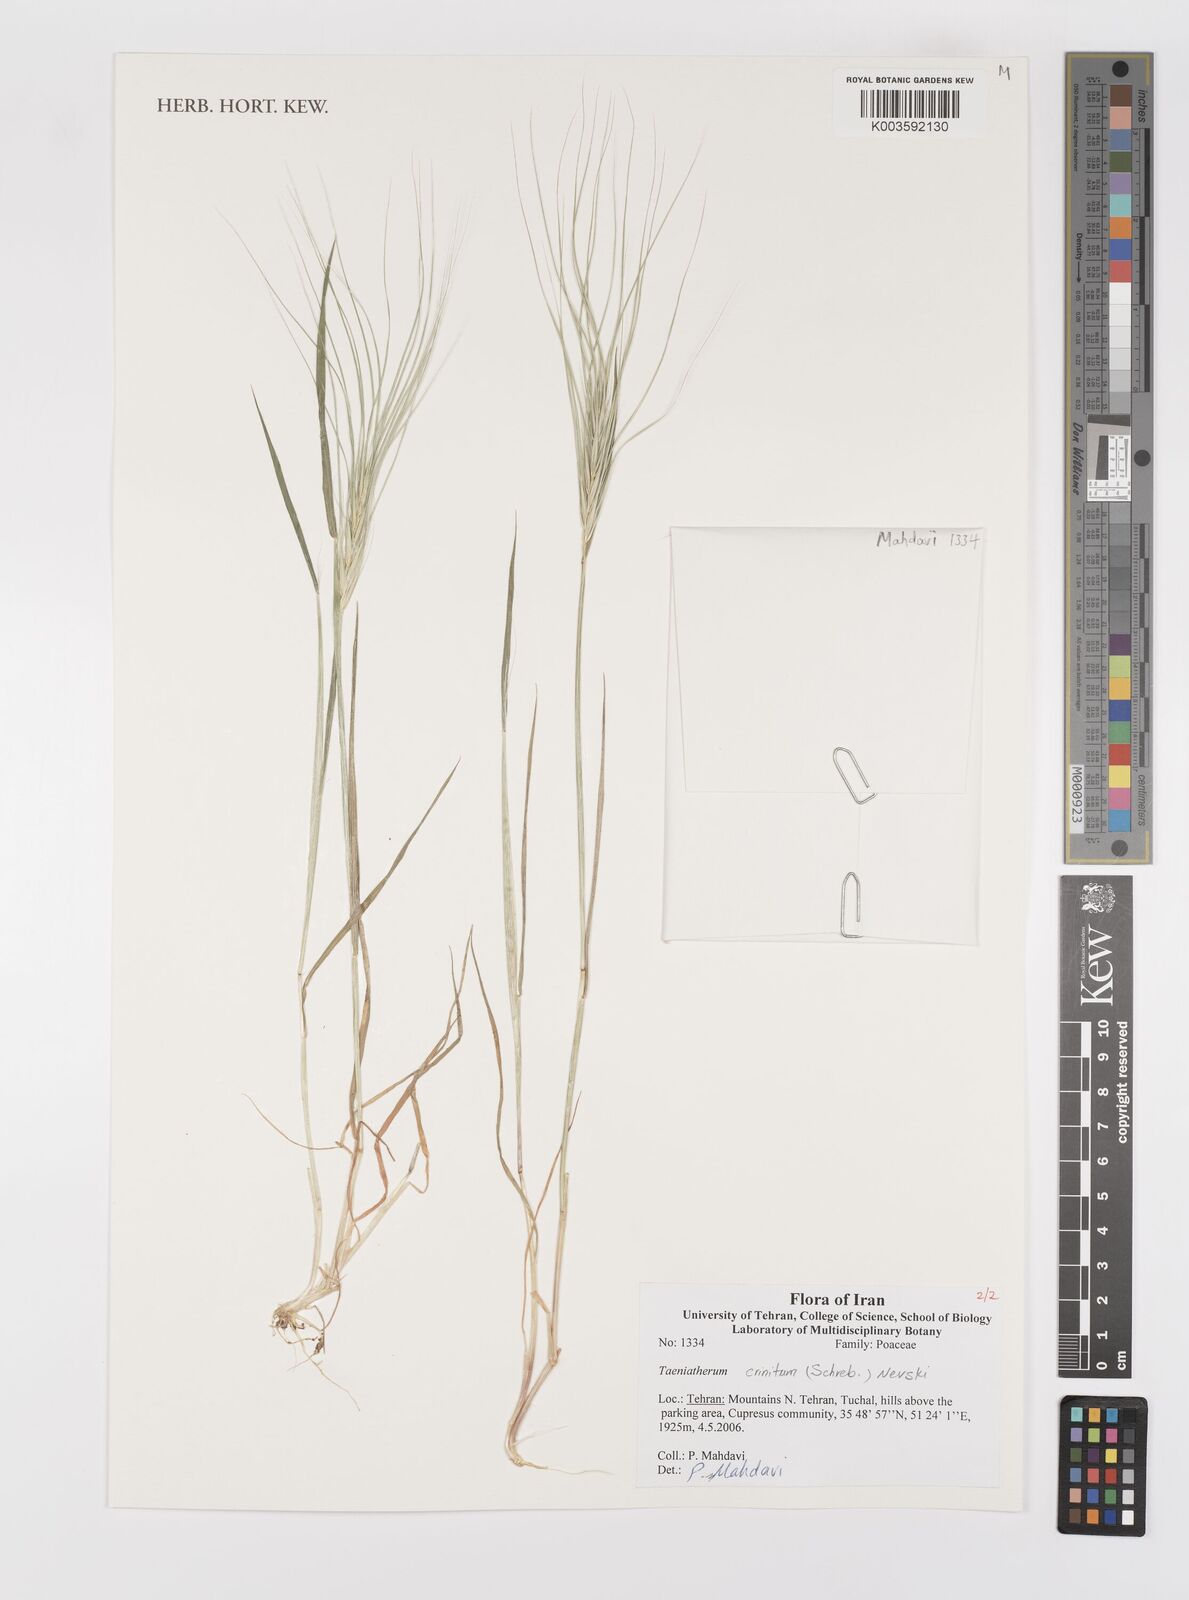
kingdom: Plantae
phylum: Tracheophyta
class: Liliopsida
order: Poales
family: Poaceae
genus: Taeniatherum
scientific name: Taeniatherum caput-medusae
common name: Medusahead
